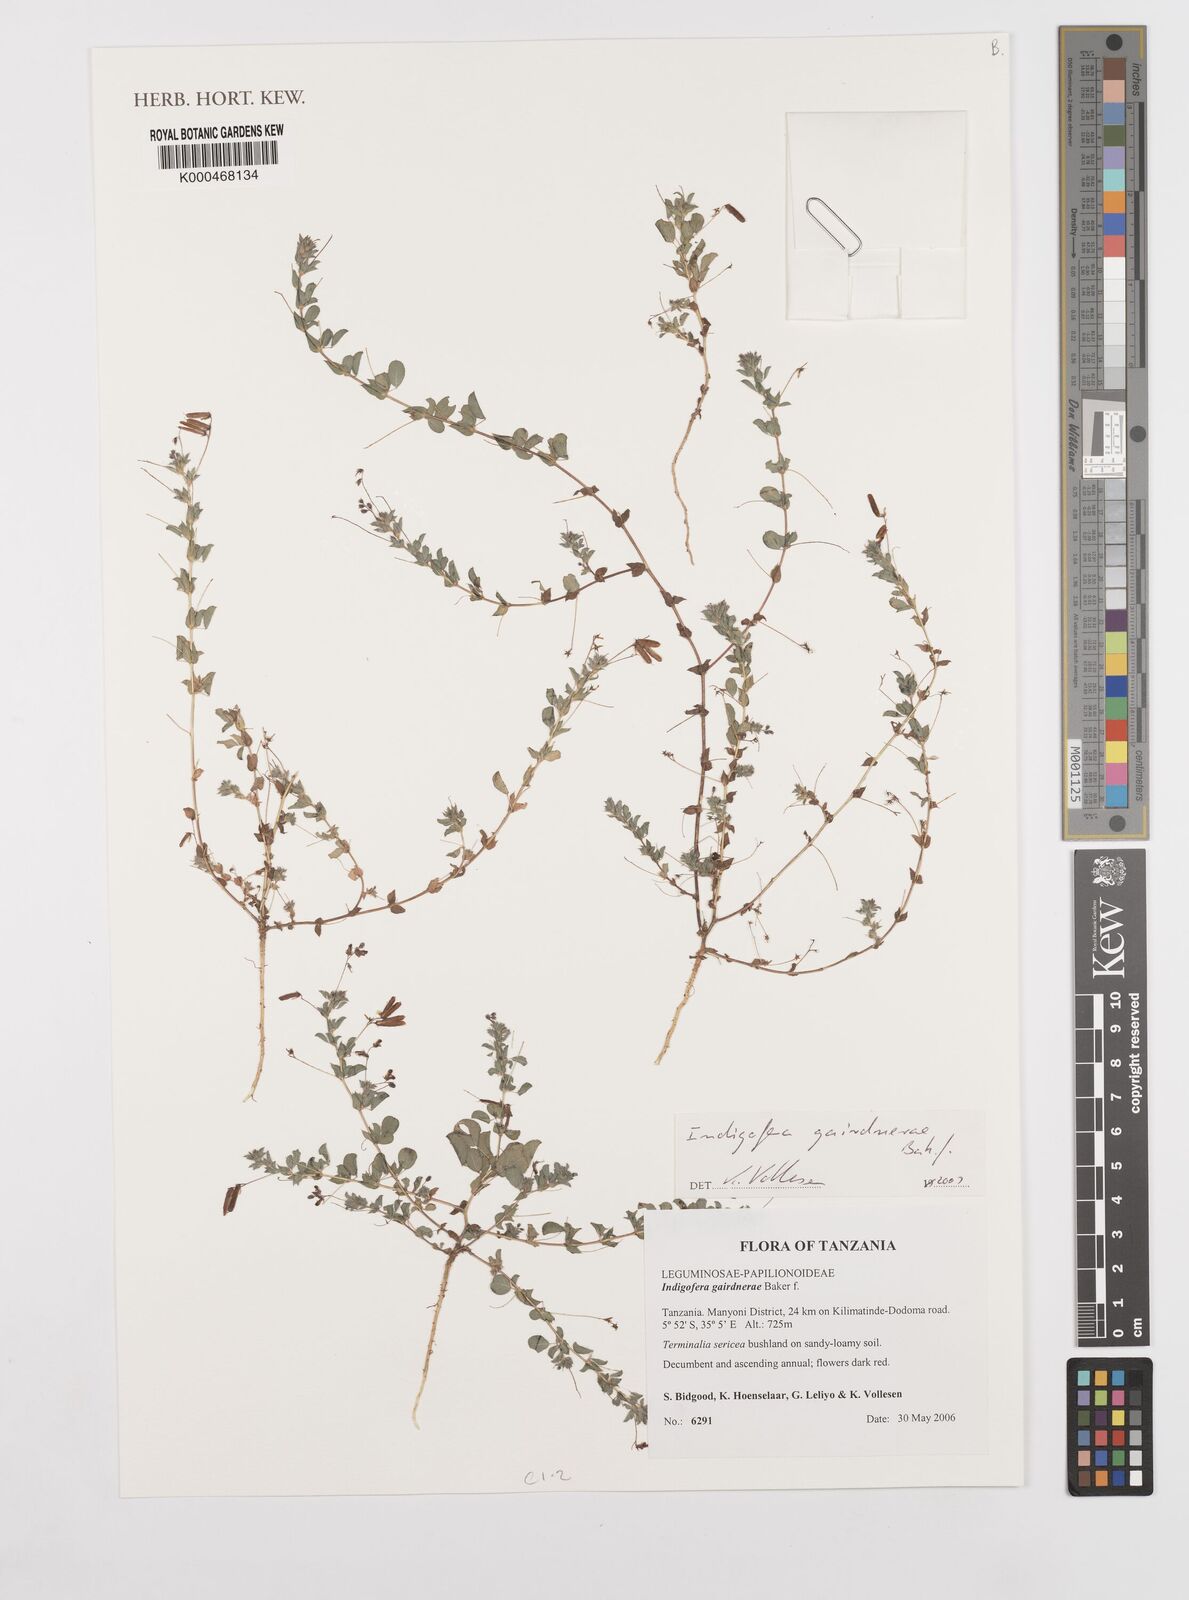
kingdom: Plantae
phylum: Tracheophyta
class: Magnoliopsida
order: Fabales
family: Fabaceae
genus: Indigofera
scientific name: Indigofera gairdnerae
